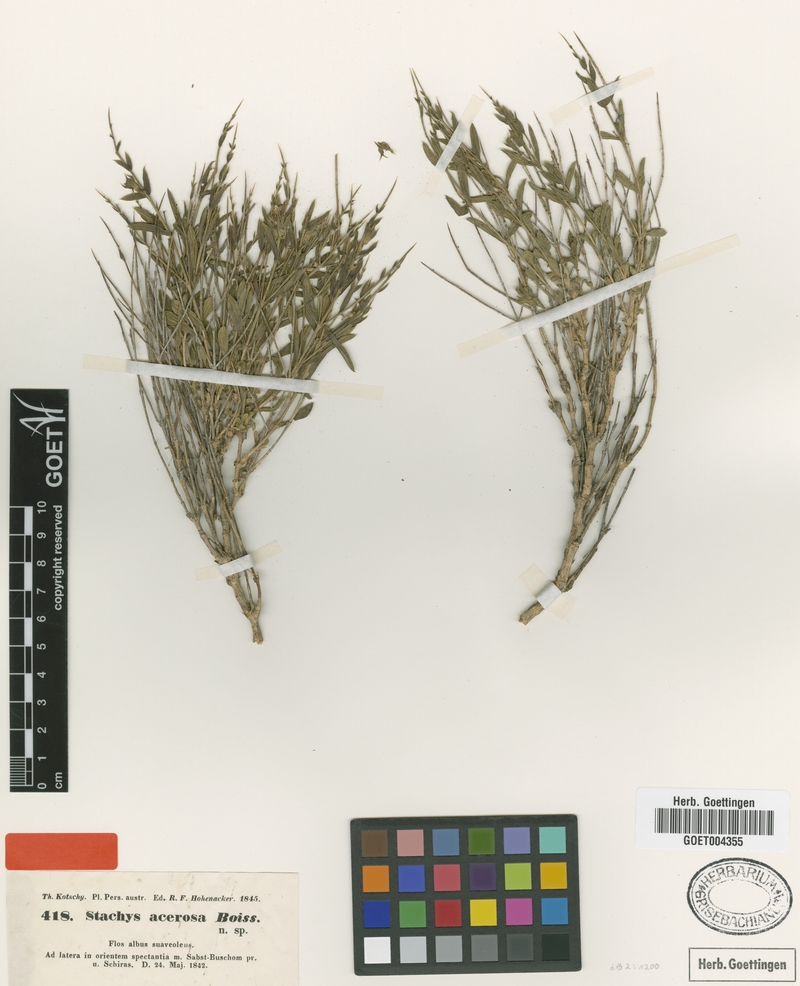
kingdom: Plantae
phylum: Tracheophyta
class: Magnoliopsida
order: Lamiales
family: Lamiaceae
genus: Stachys
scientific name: Stachys acerosa
